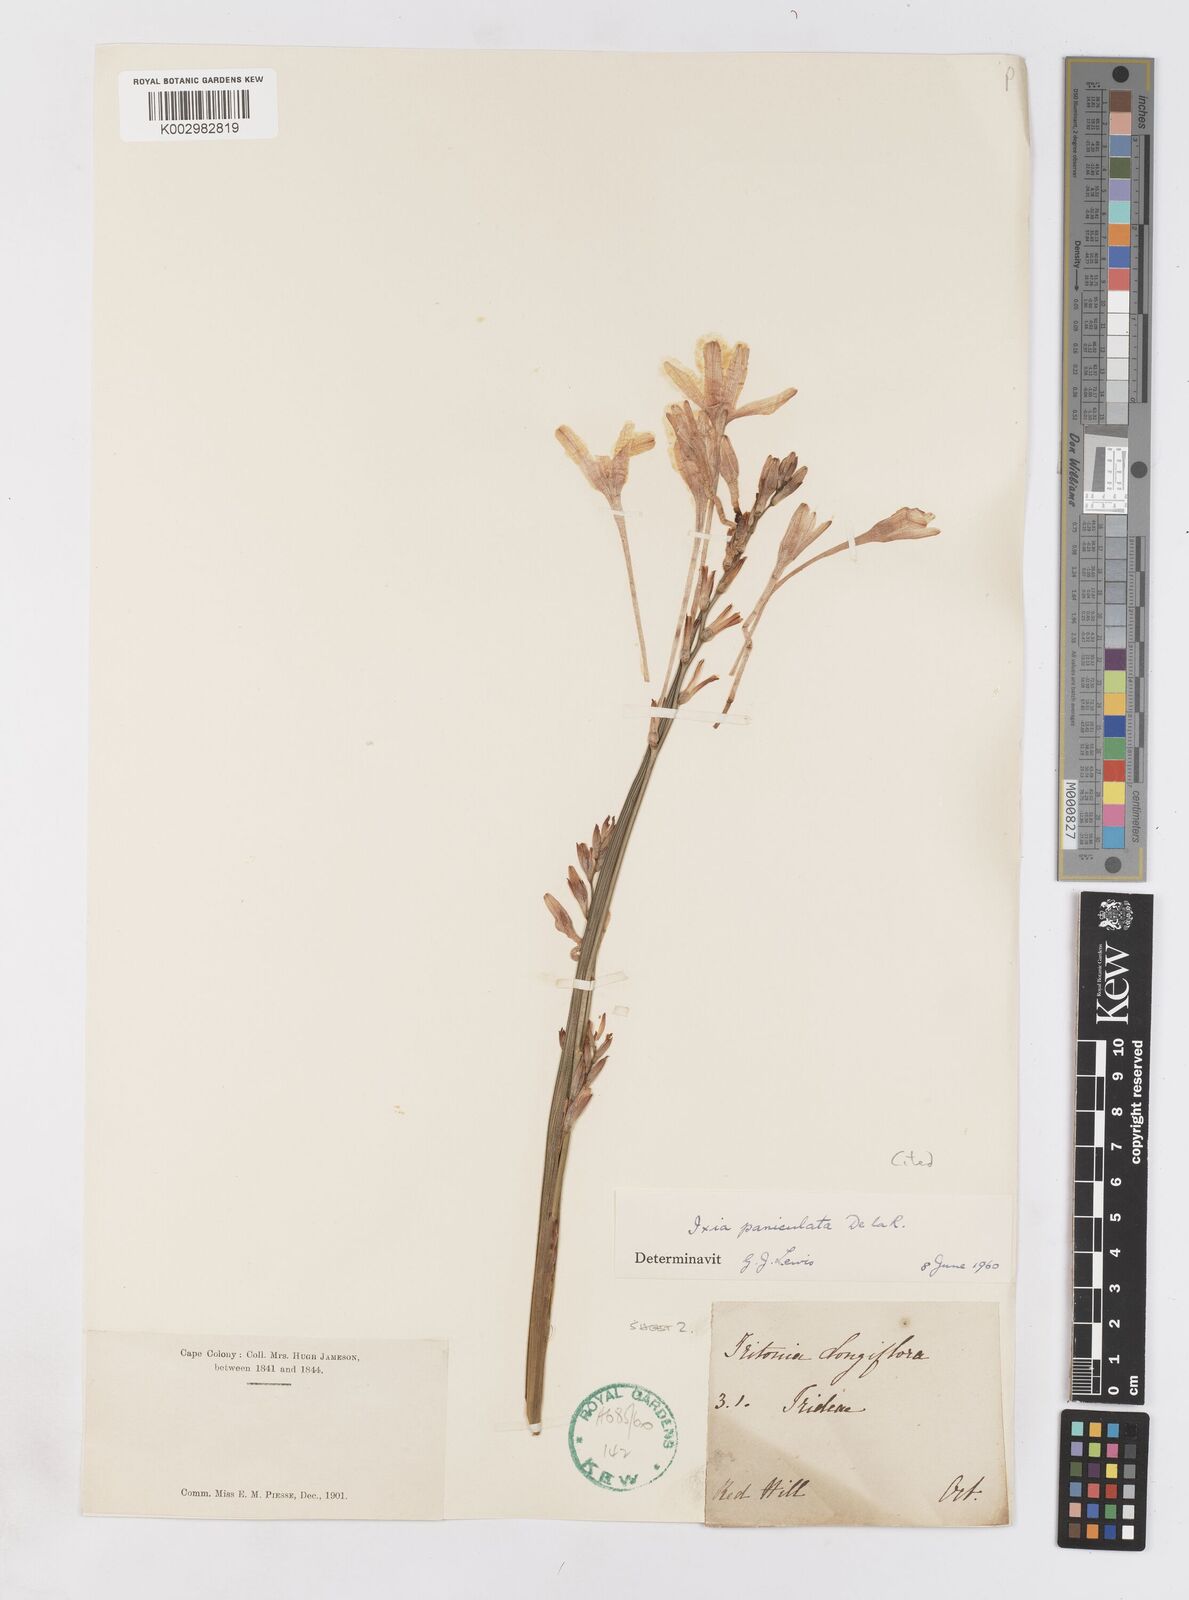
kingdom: Plantae
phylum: Tracheophyta
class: Liliopsida
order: Asparagales
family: Iridaceae
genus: Ixia
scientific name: Ixia paniculata
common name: Tubular corn-lily
